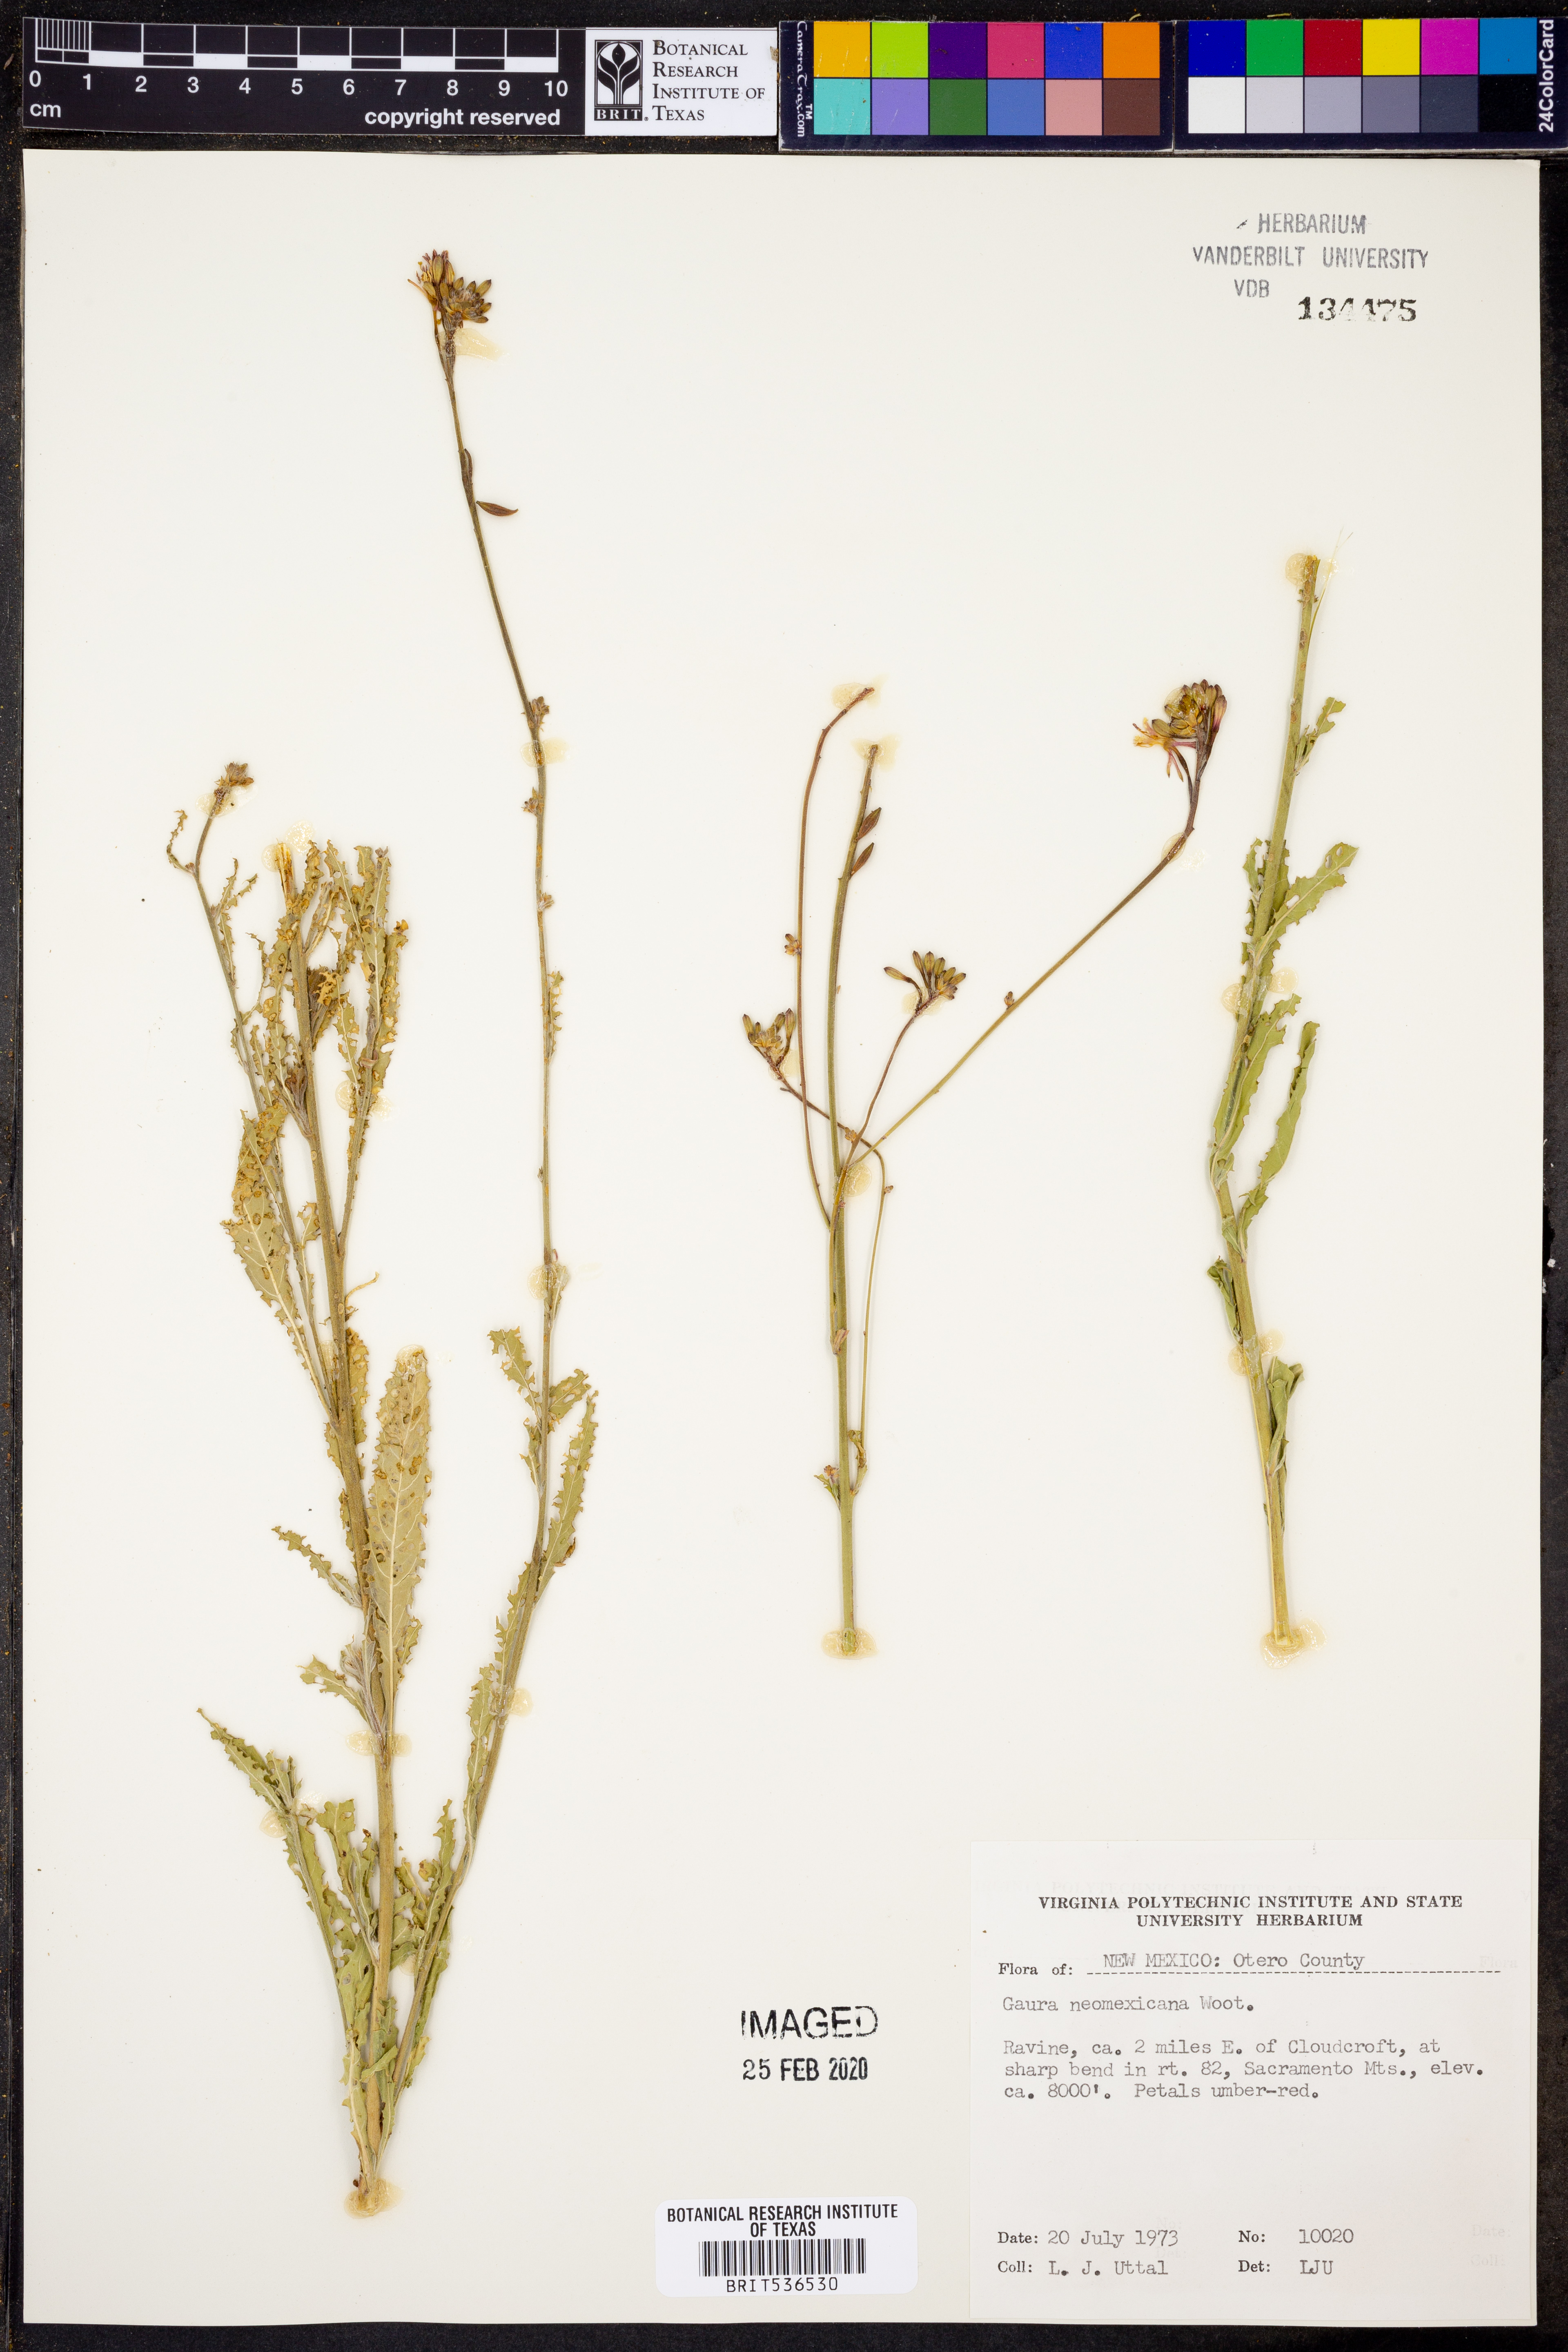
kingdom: Plantae
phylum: Tracheophyta
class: Magnoliopsida
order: Myrtales
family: Onagraceae
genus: Oenothera
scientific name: Oenothera dodgeniana
